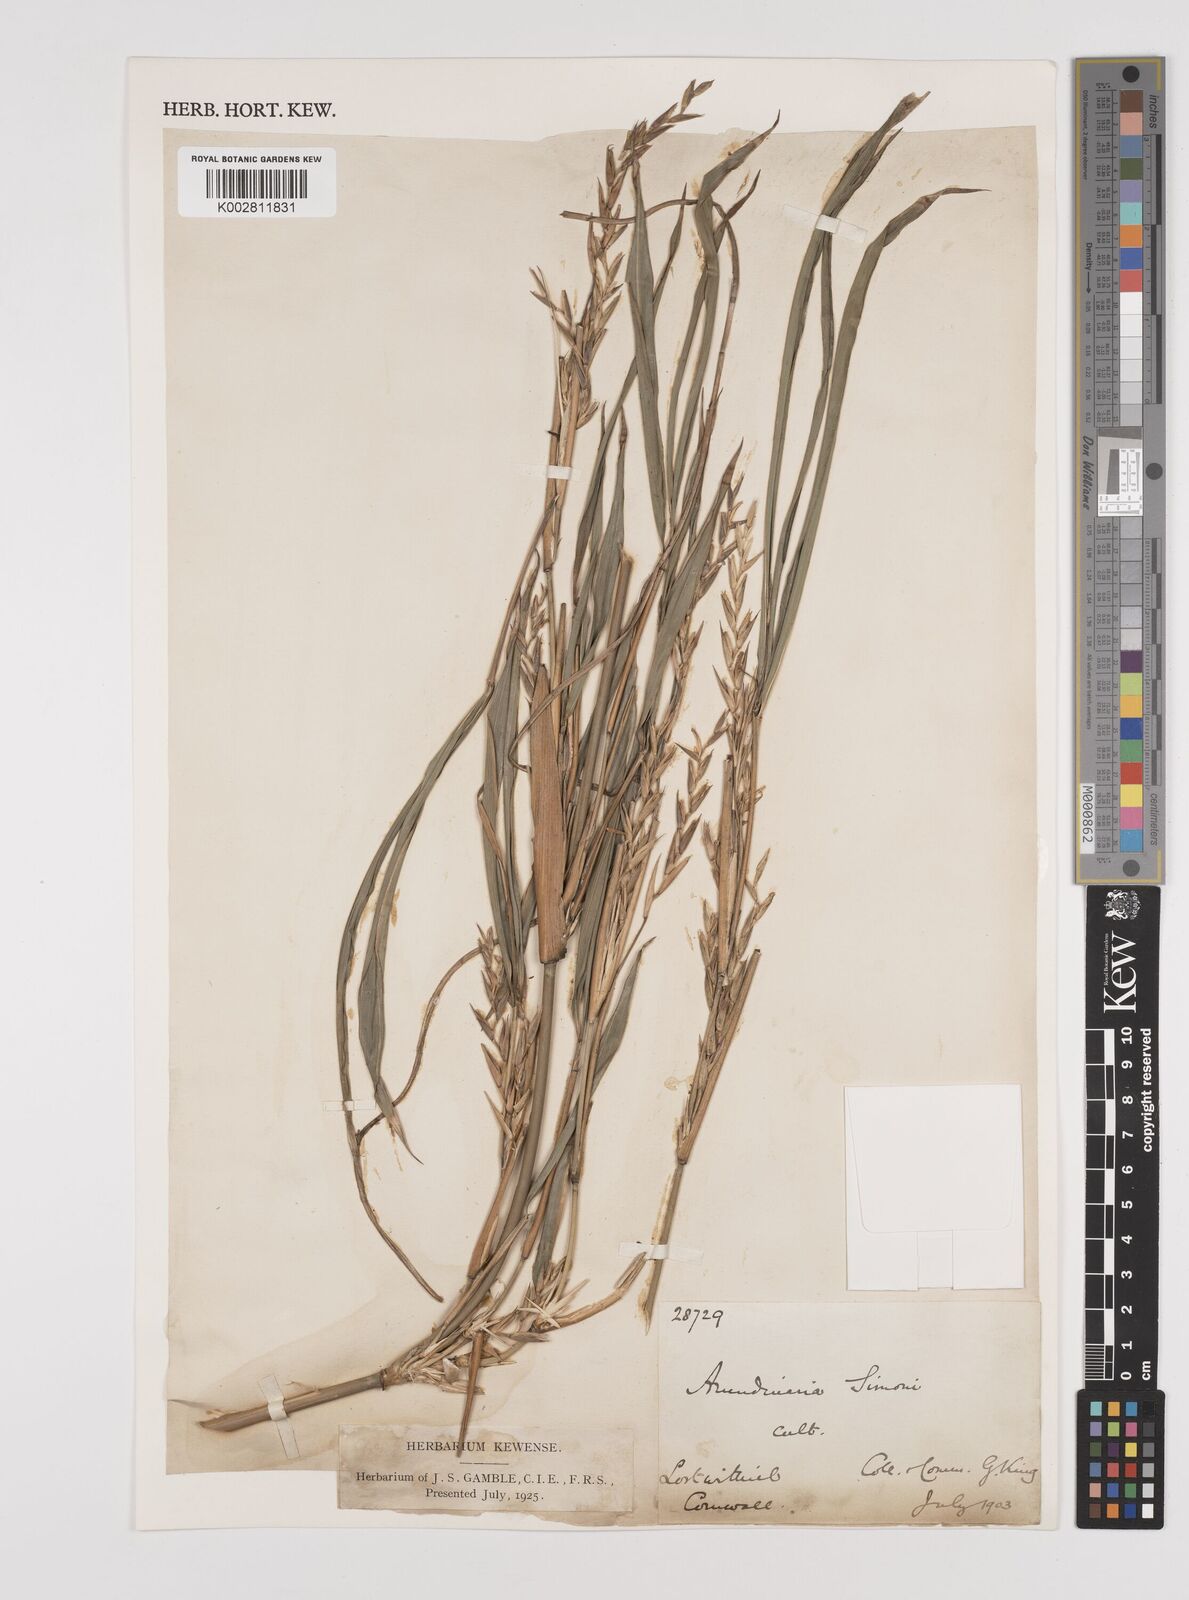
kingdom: Plantae
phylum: Tracheophyta
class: Liliopsida
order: Poales
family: Poaceae
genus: Pleioblastus
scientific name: Pleioblastus simonii
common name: Simon bamboo
